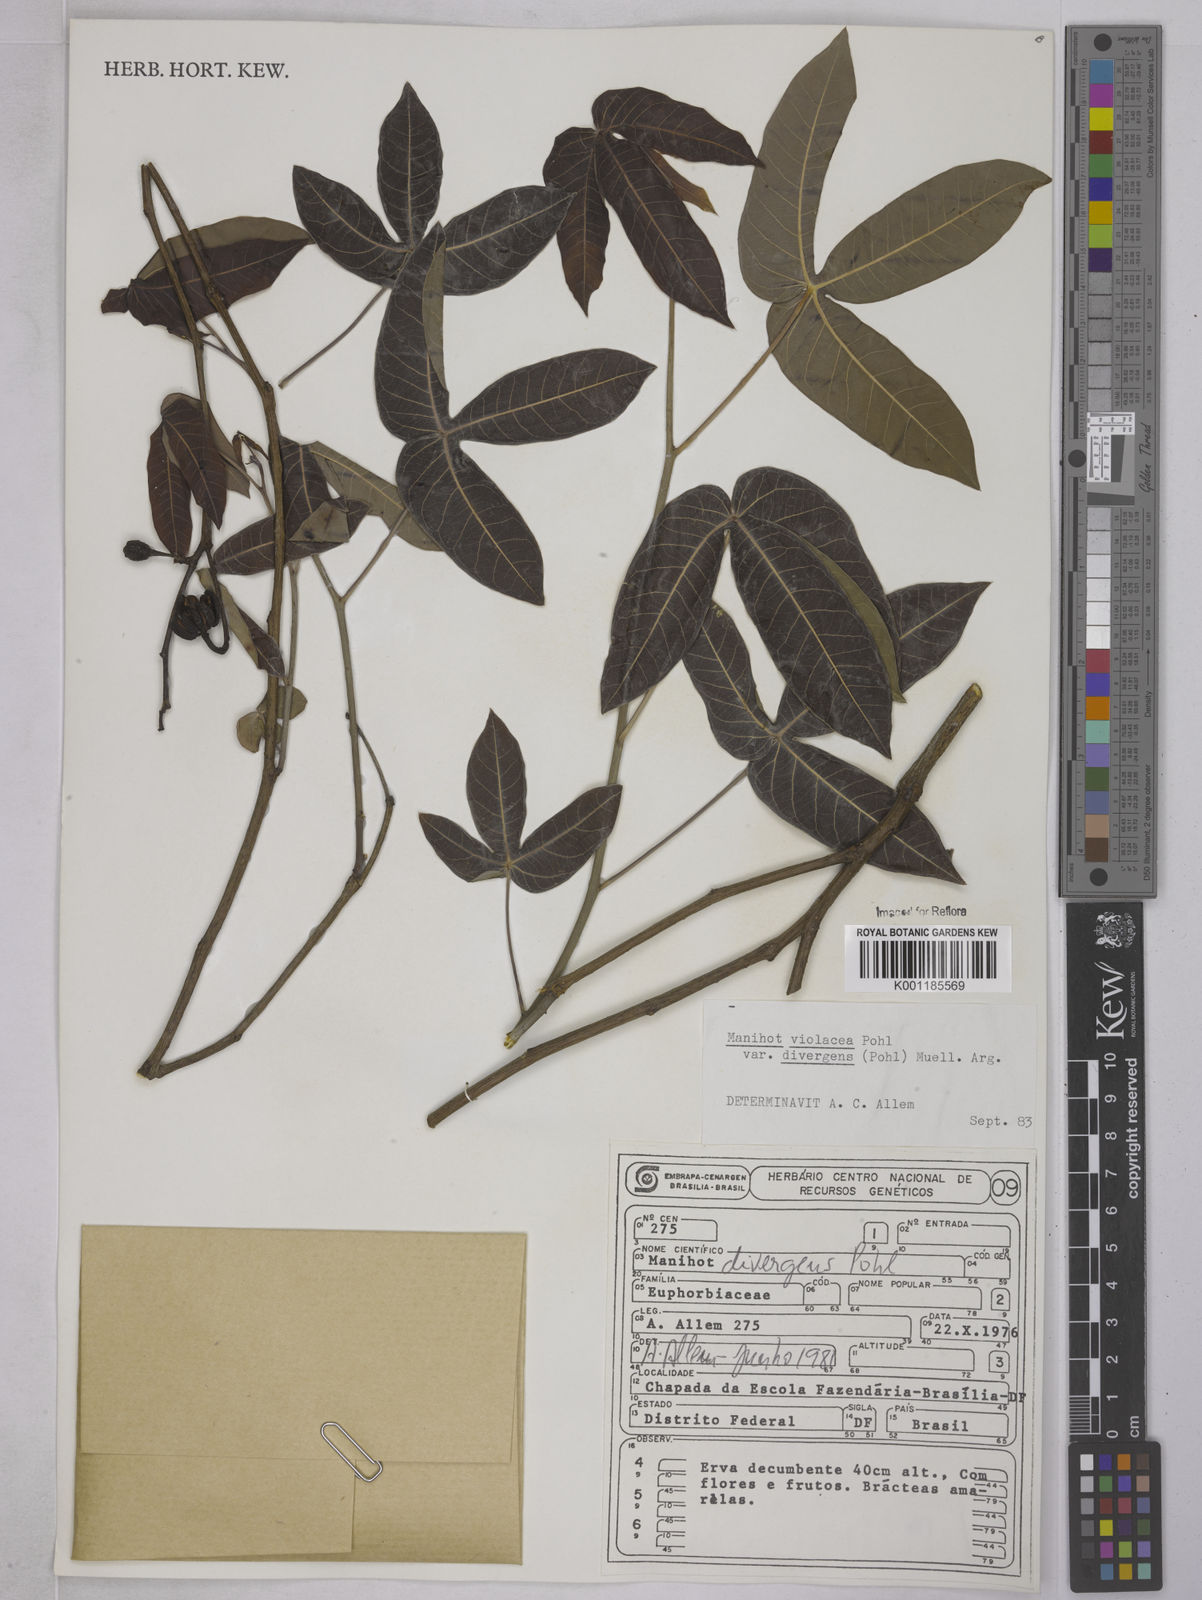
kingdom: Plantae
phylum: Tracheophyta
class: Magnoliopsida
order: Malpighiales
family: Euphorbiaceae
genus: Manihot
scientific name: Manihot divergens
